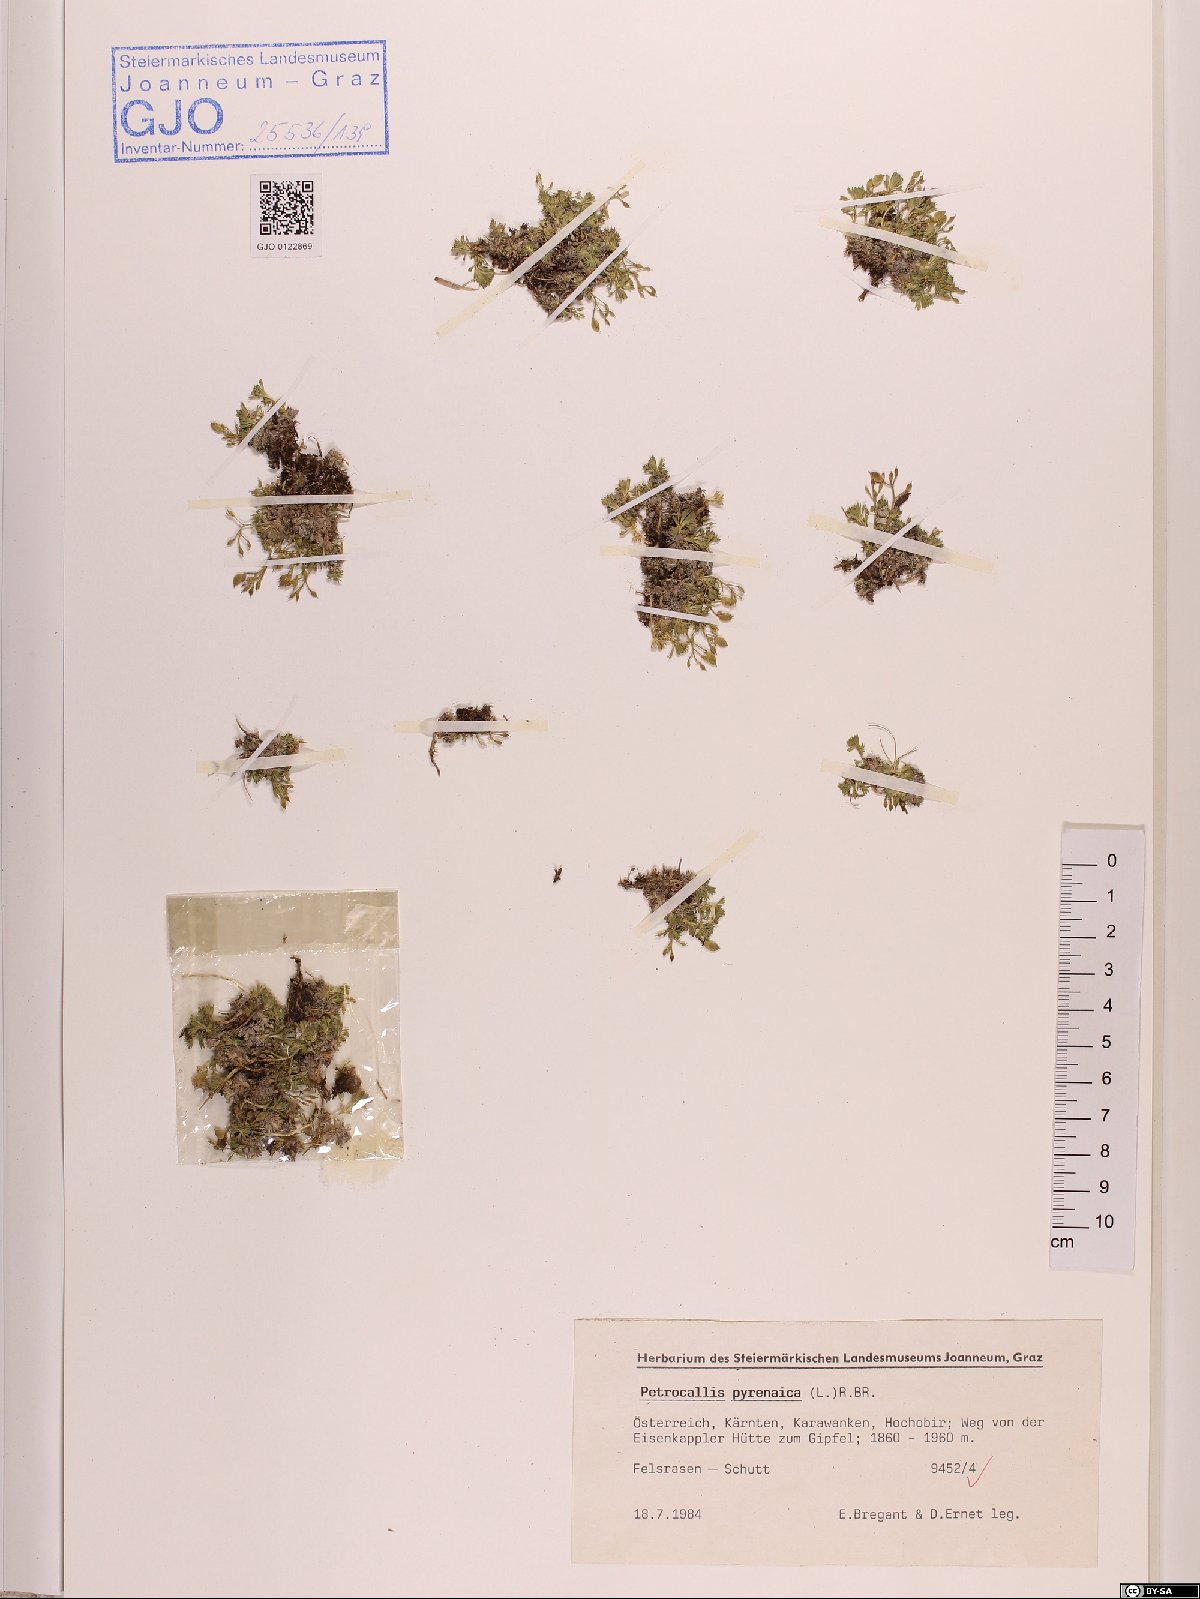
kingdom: Plantae
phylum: Tracheophyta
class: Magnoliopsida
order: Brassicales
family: Brassicaceae
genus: Petrocallis
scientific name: Petrocallis pyrenaica
